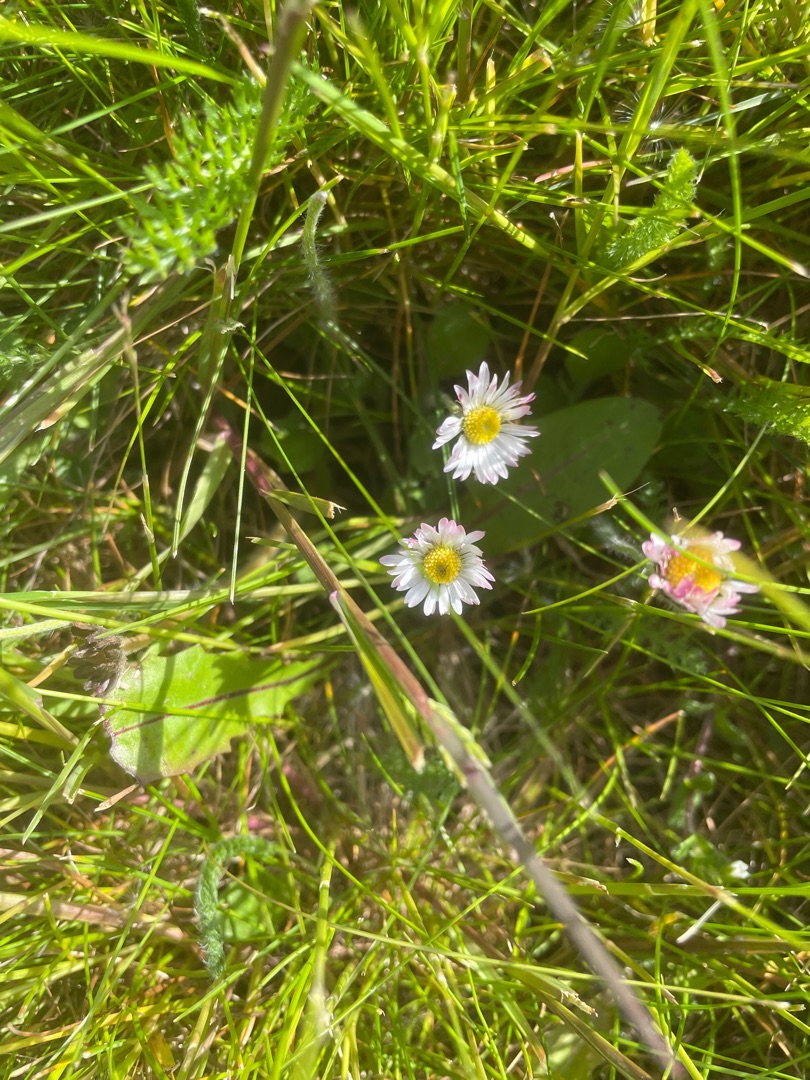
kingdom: Plantae
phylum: Tracheophyta
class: Magnoliopsida
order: Asterales
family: Asteraceae
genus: Bellis
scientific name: Bellis perennis
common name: Tusindfryd
